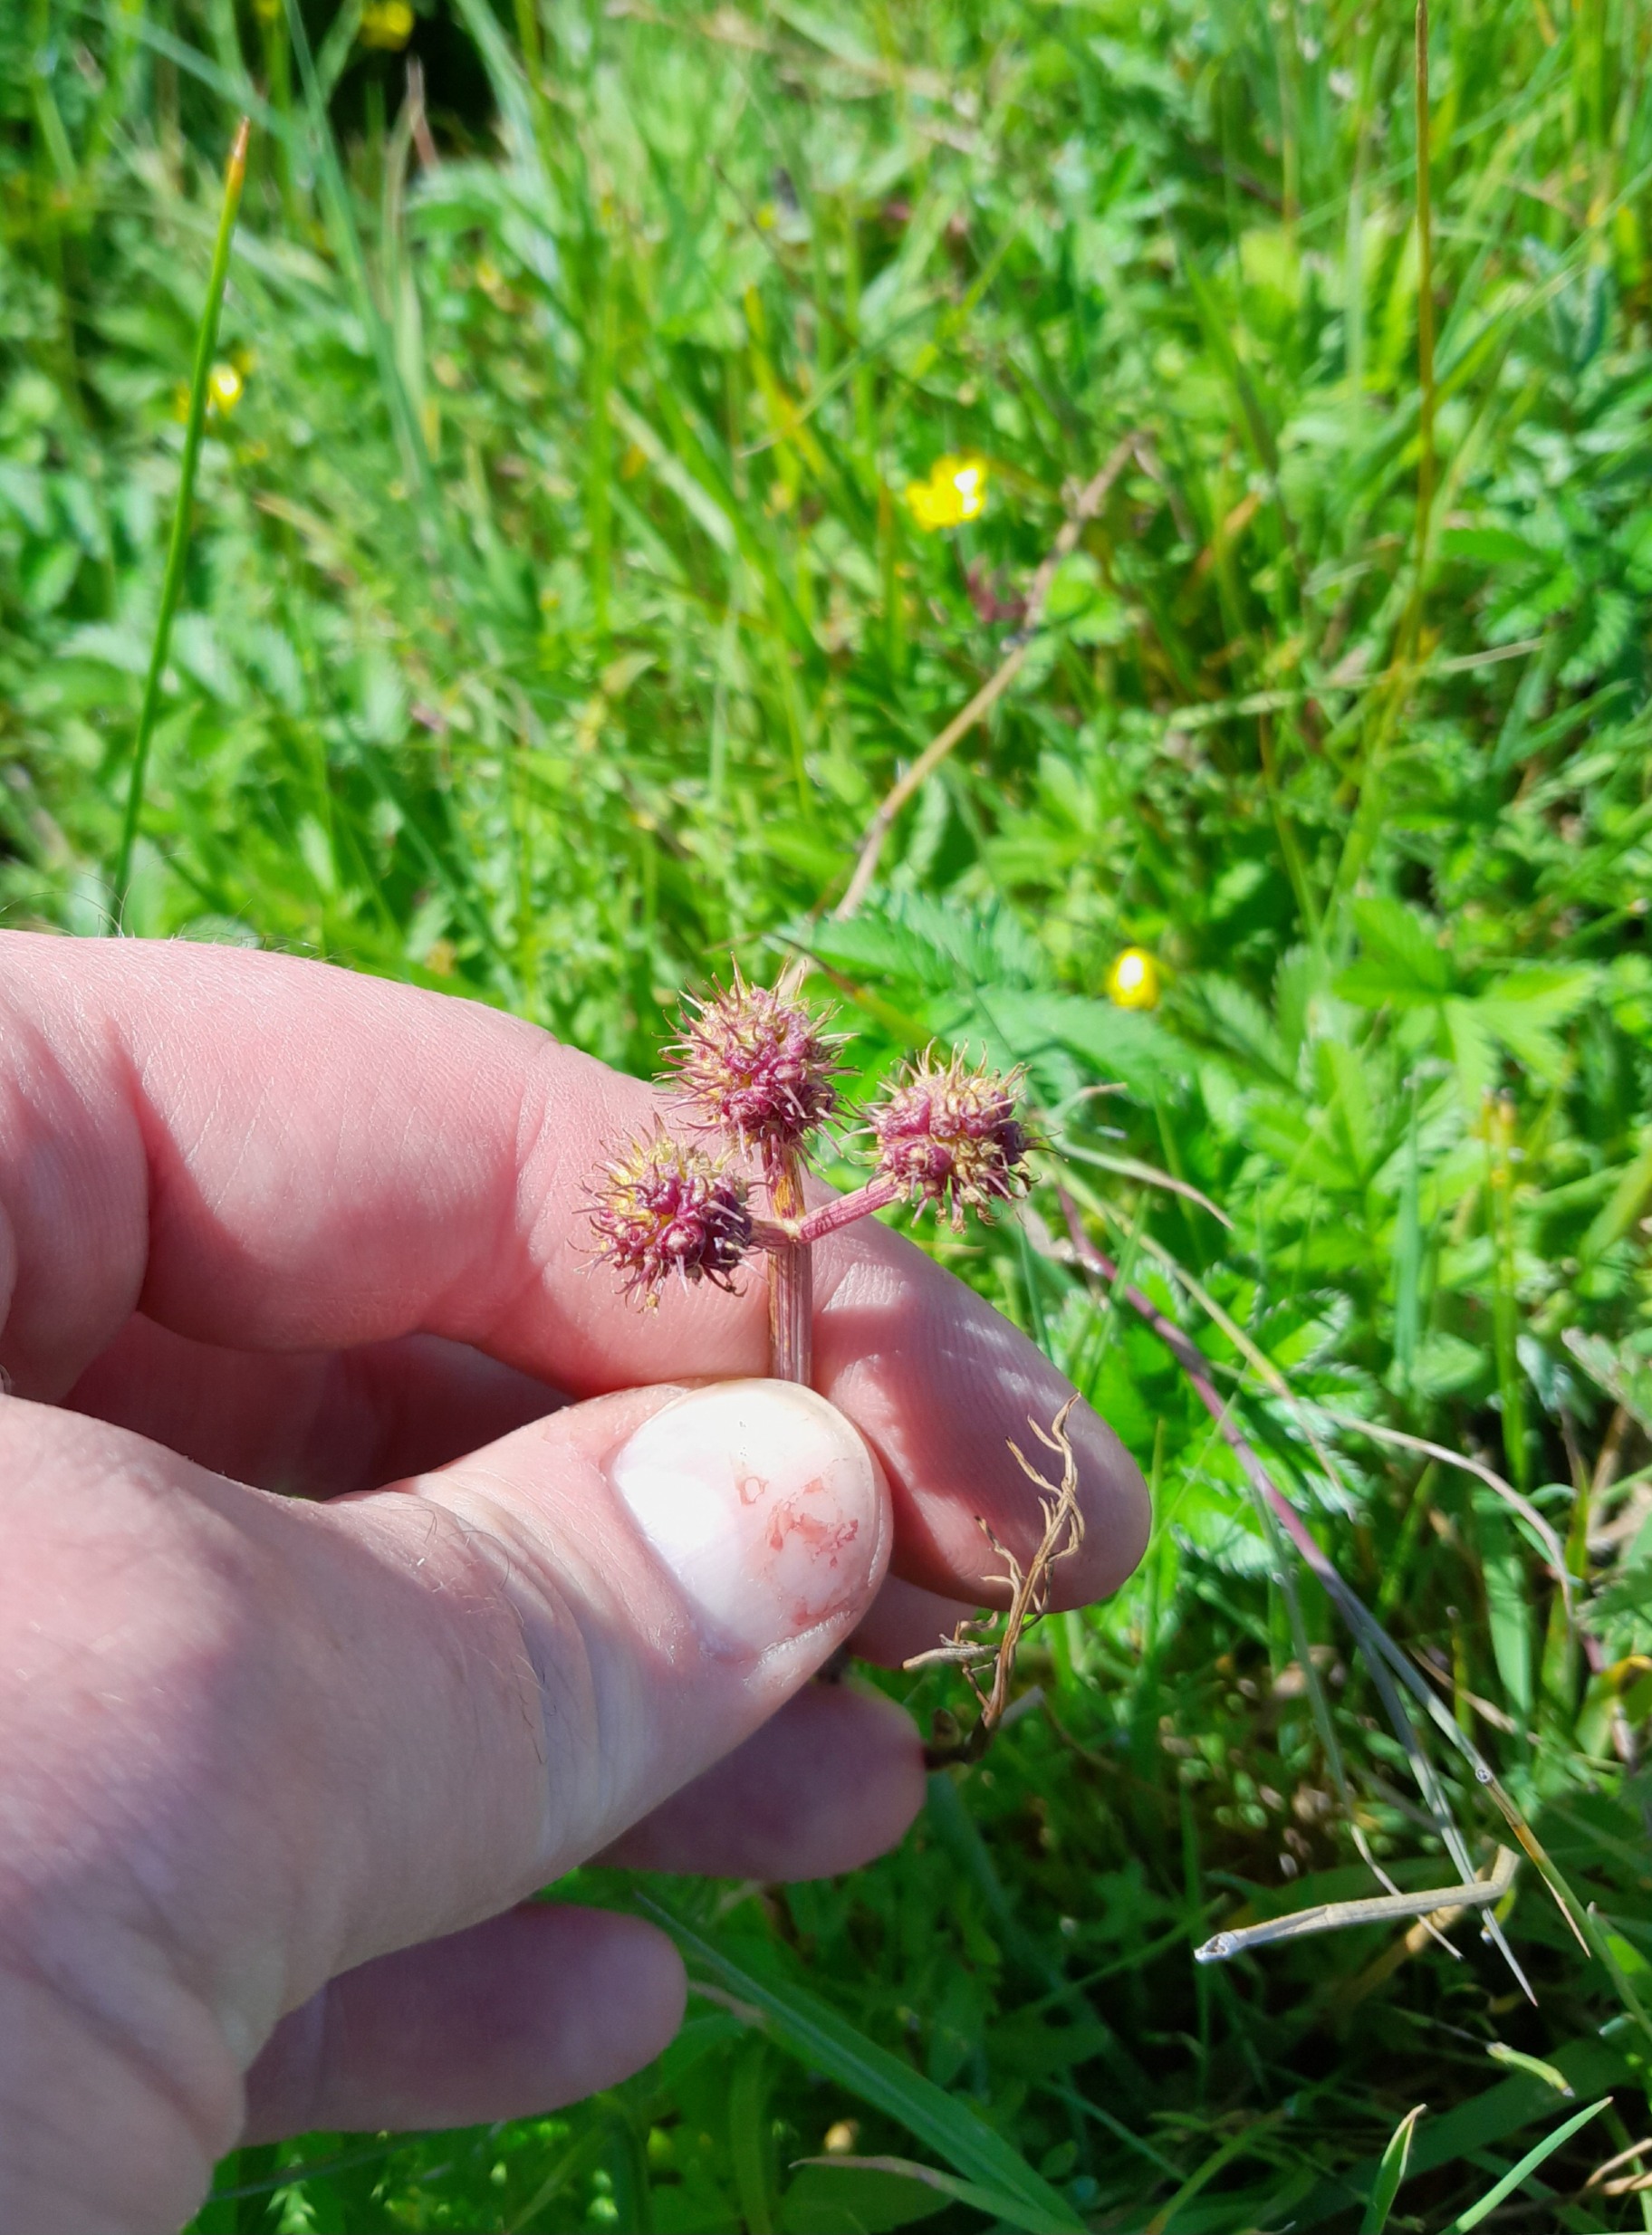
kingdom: Plantae
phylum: Tracheophyta
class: Magnoliopsida
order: Apiales
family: Apiaceae
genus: Oenanthe
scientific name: Oenanthe fistulosa
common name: Vand-klaseskærm
